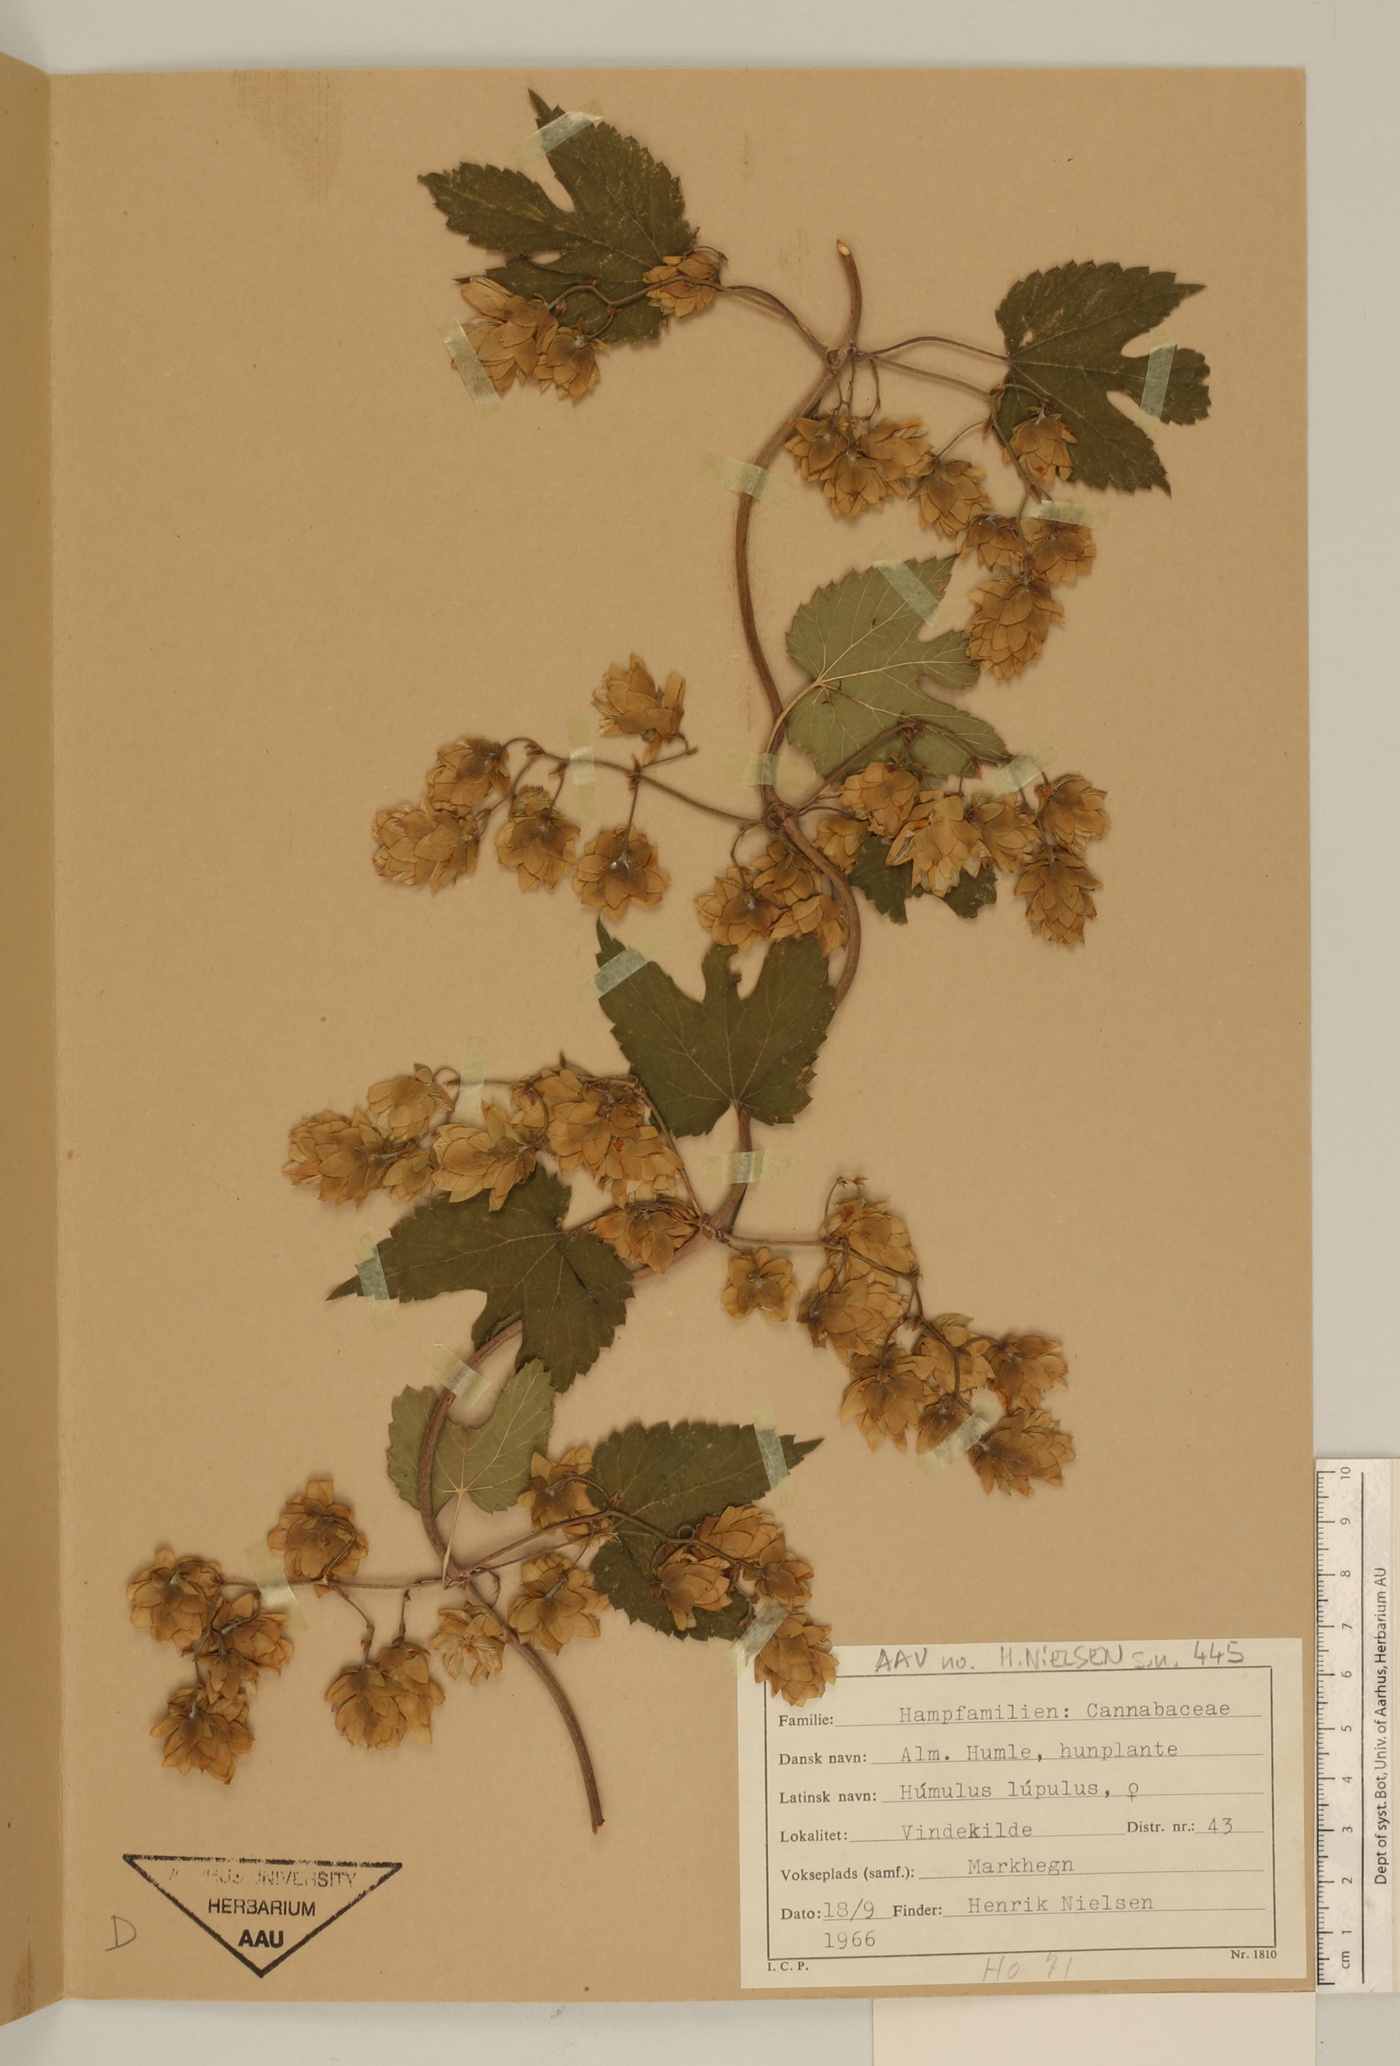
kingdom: Plantae
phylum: Tracheophyta
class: Magnoliopsida
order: Rosales
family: Cannabaceae
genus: Humulus
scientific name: Humulus lupulus
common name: Hop
